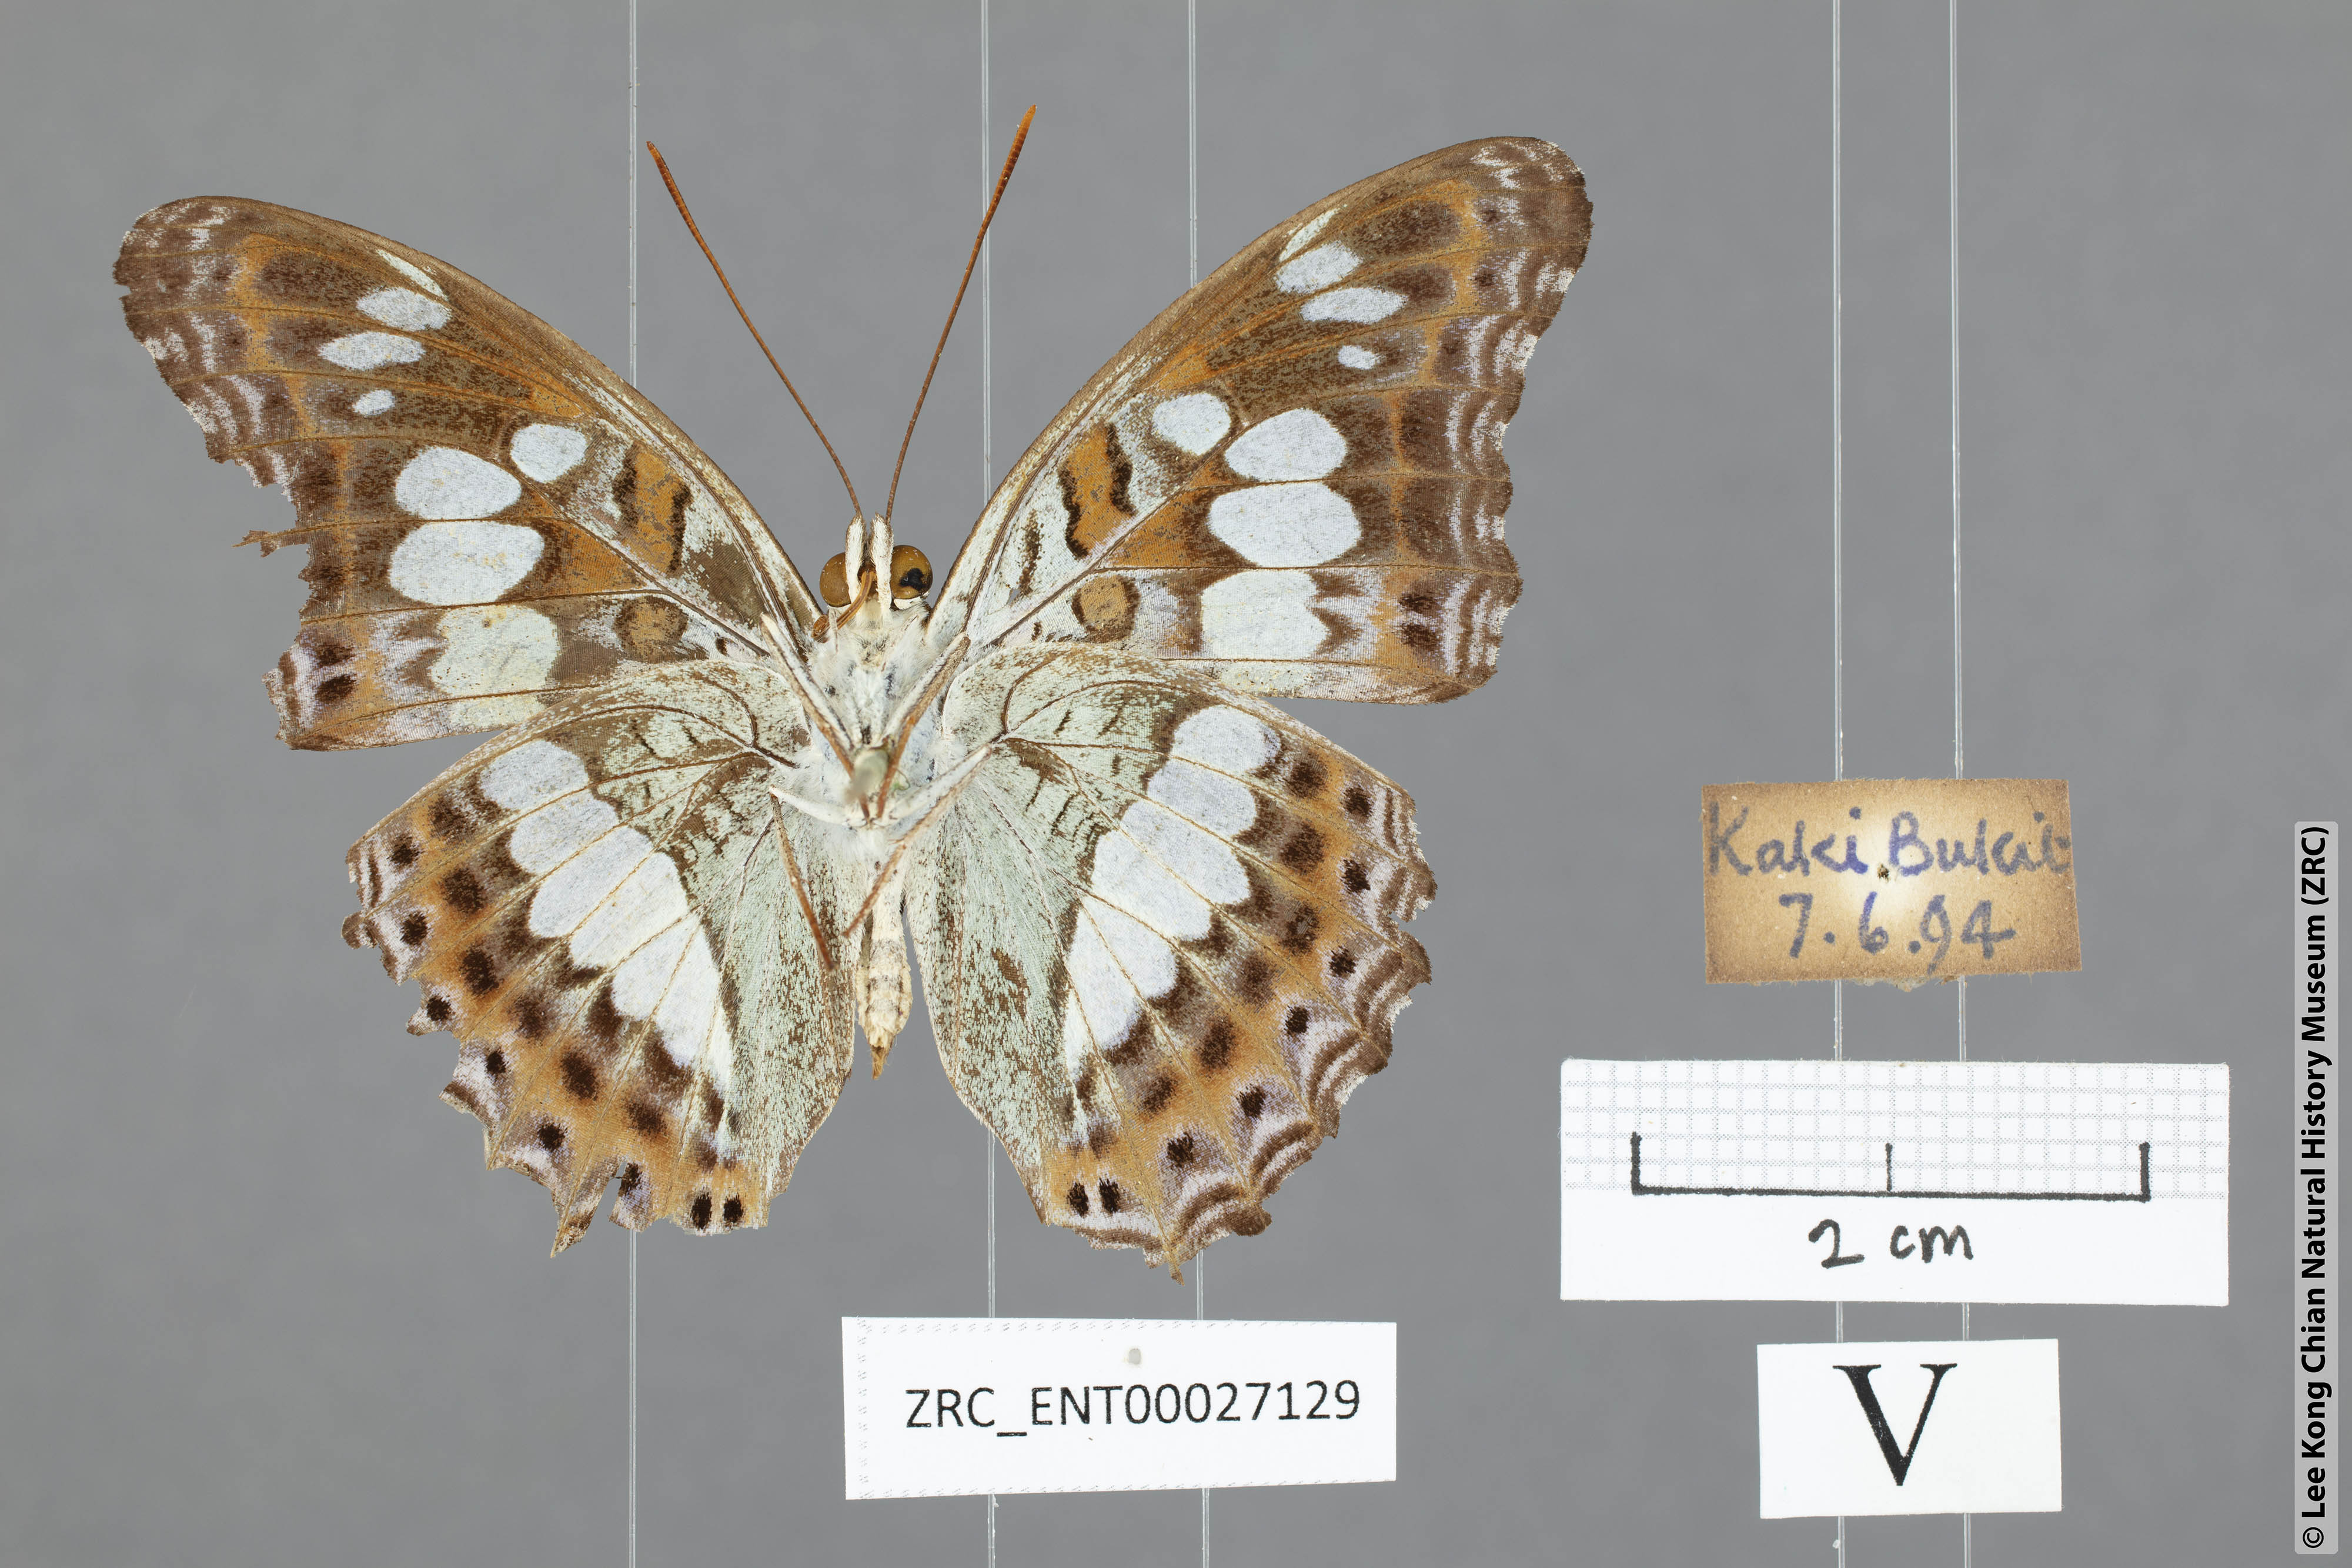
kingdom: Animalia
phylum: Arthropoda
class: Insecta
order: Lepidoptera
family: Nymphalidae
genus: Limenitis
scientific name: Limenitis Moduza procris
